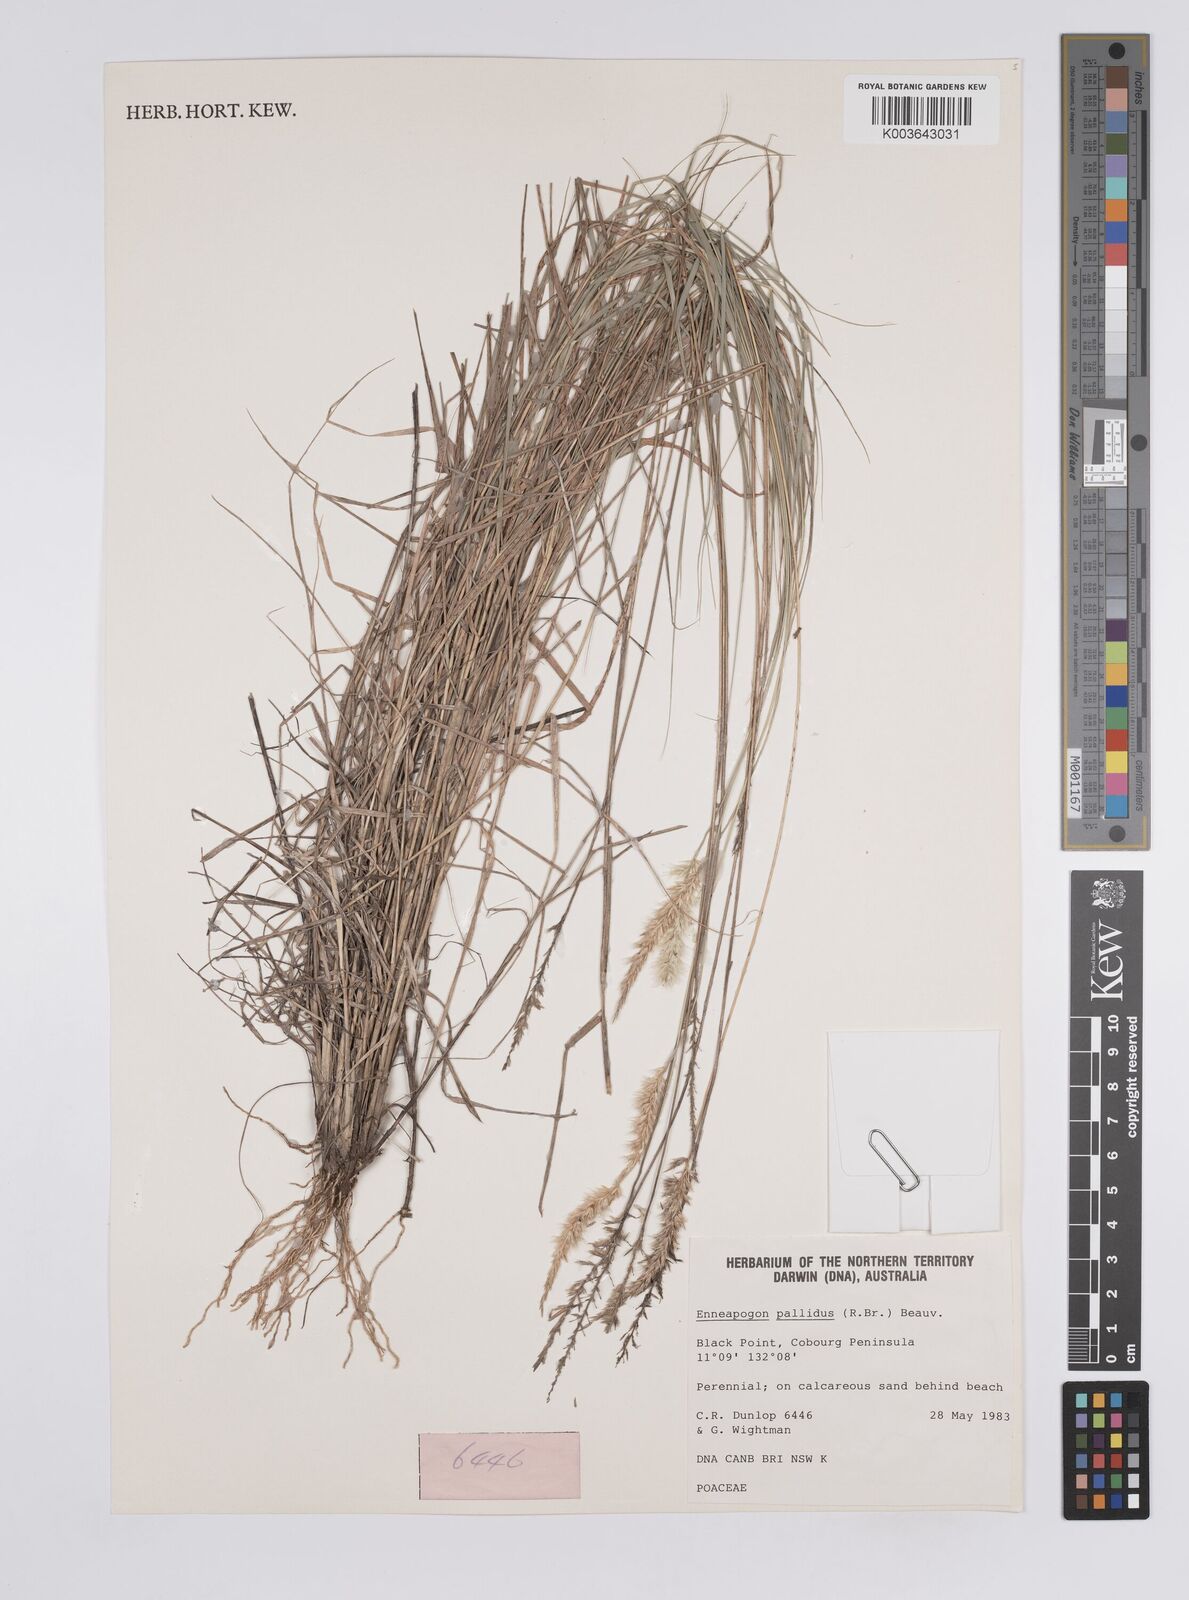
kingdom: Plantae
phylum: Tracheophyta
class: Liliopsida
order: Poales
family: Poaceae
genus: Enneapogon
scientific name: Enneapogon pallidus
